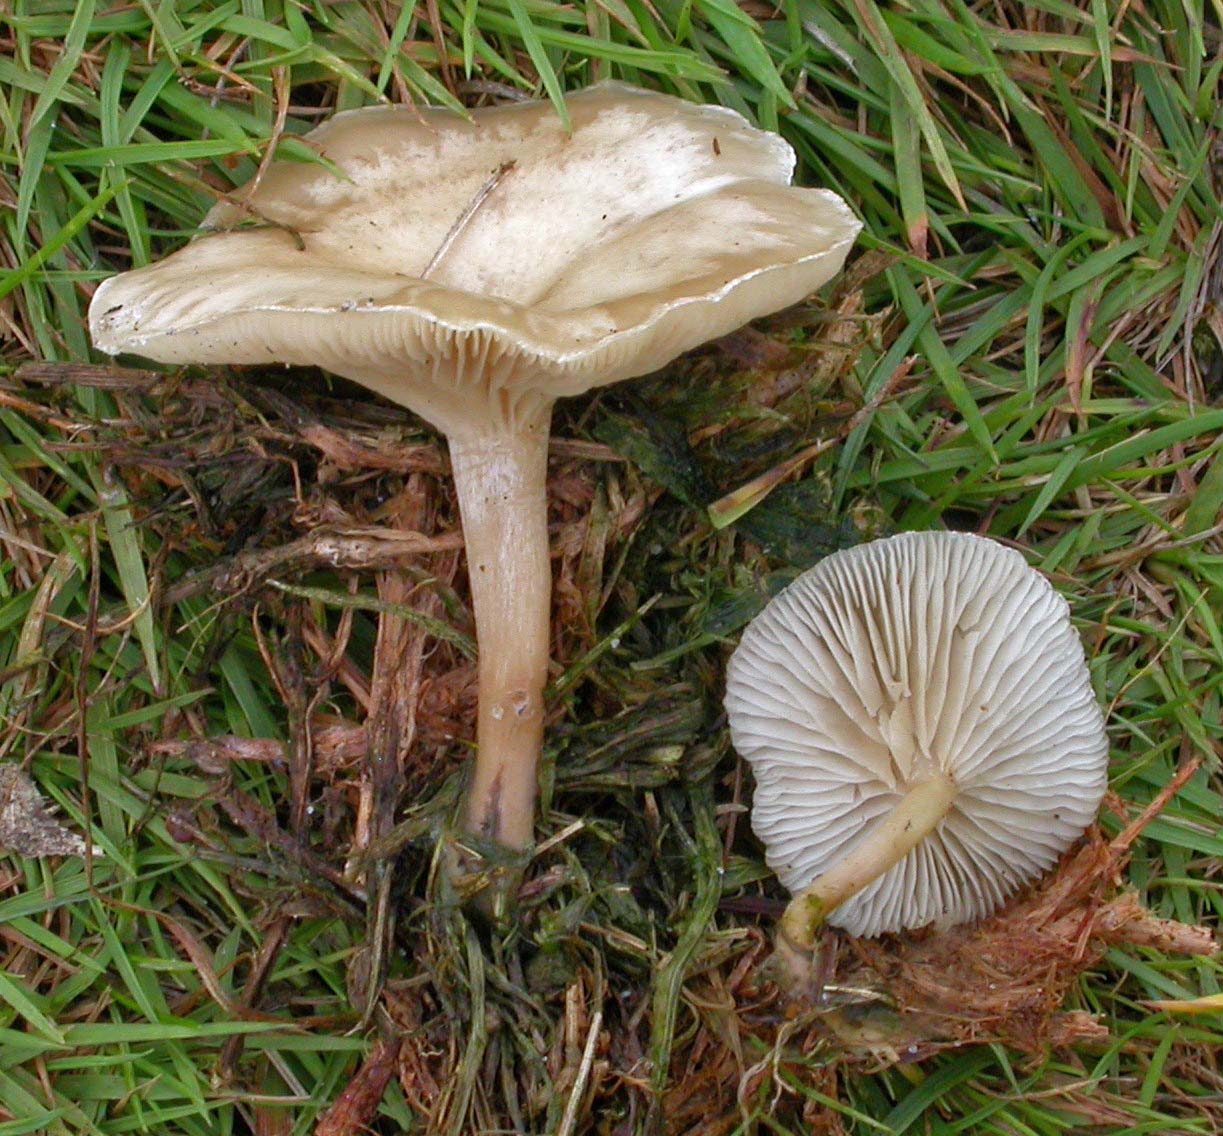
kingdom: Fungi
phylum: Basidiomycota
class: Agaricomycetes
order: Agaricales
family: Tricholomataceae
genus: Clitocybe
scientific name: Clitocybe rivulosa
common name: eng-tragthat
